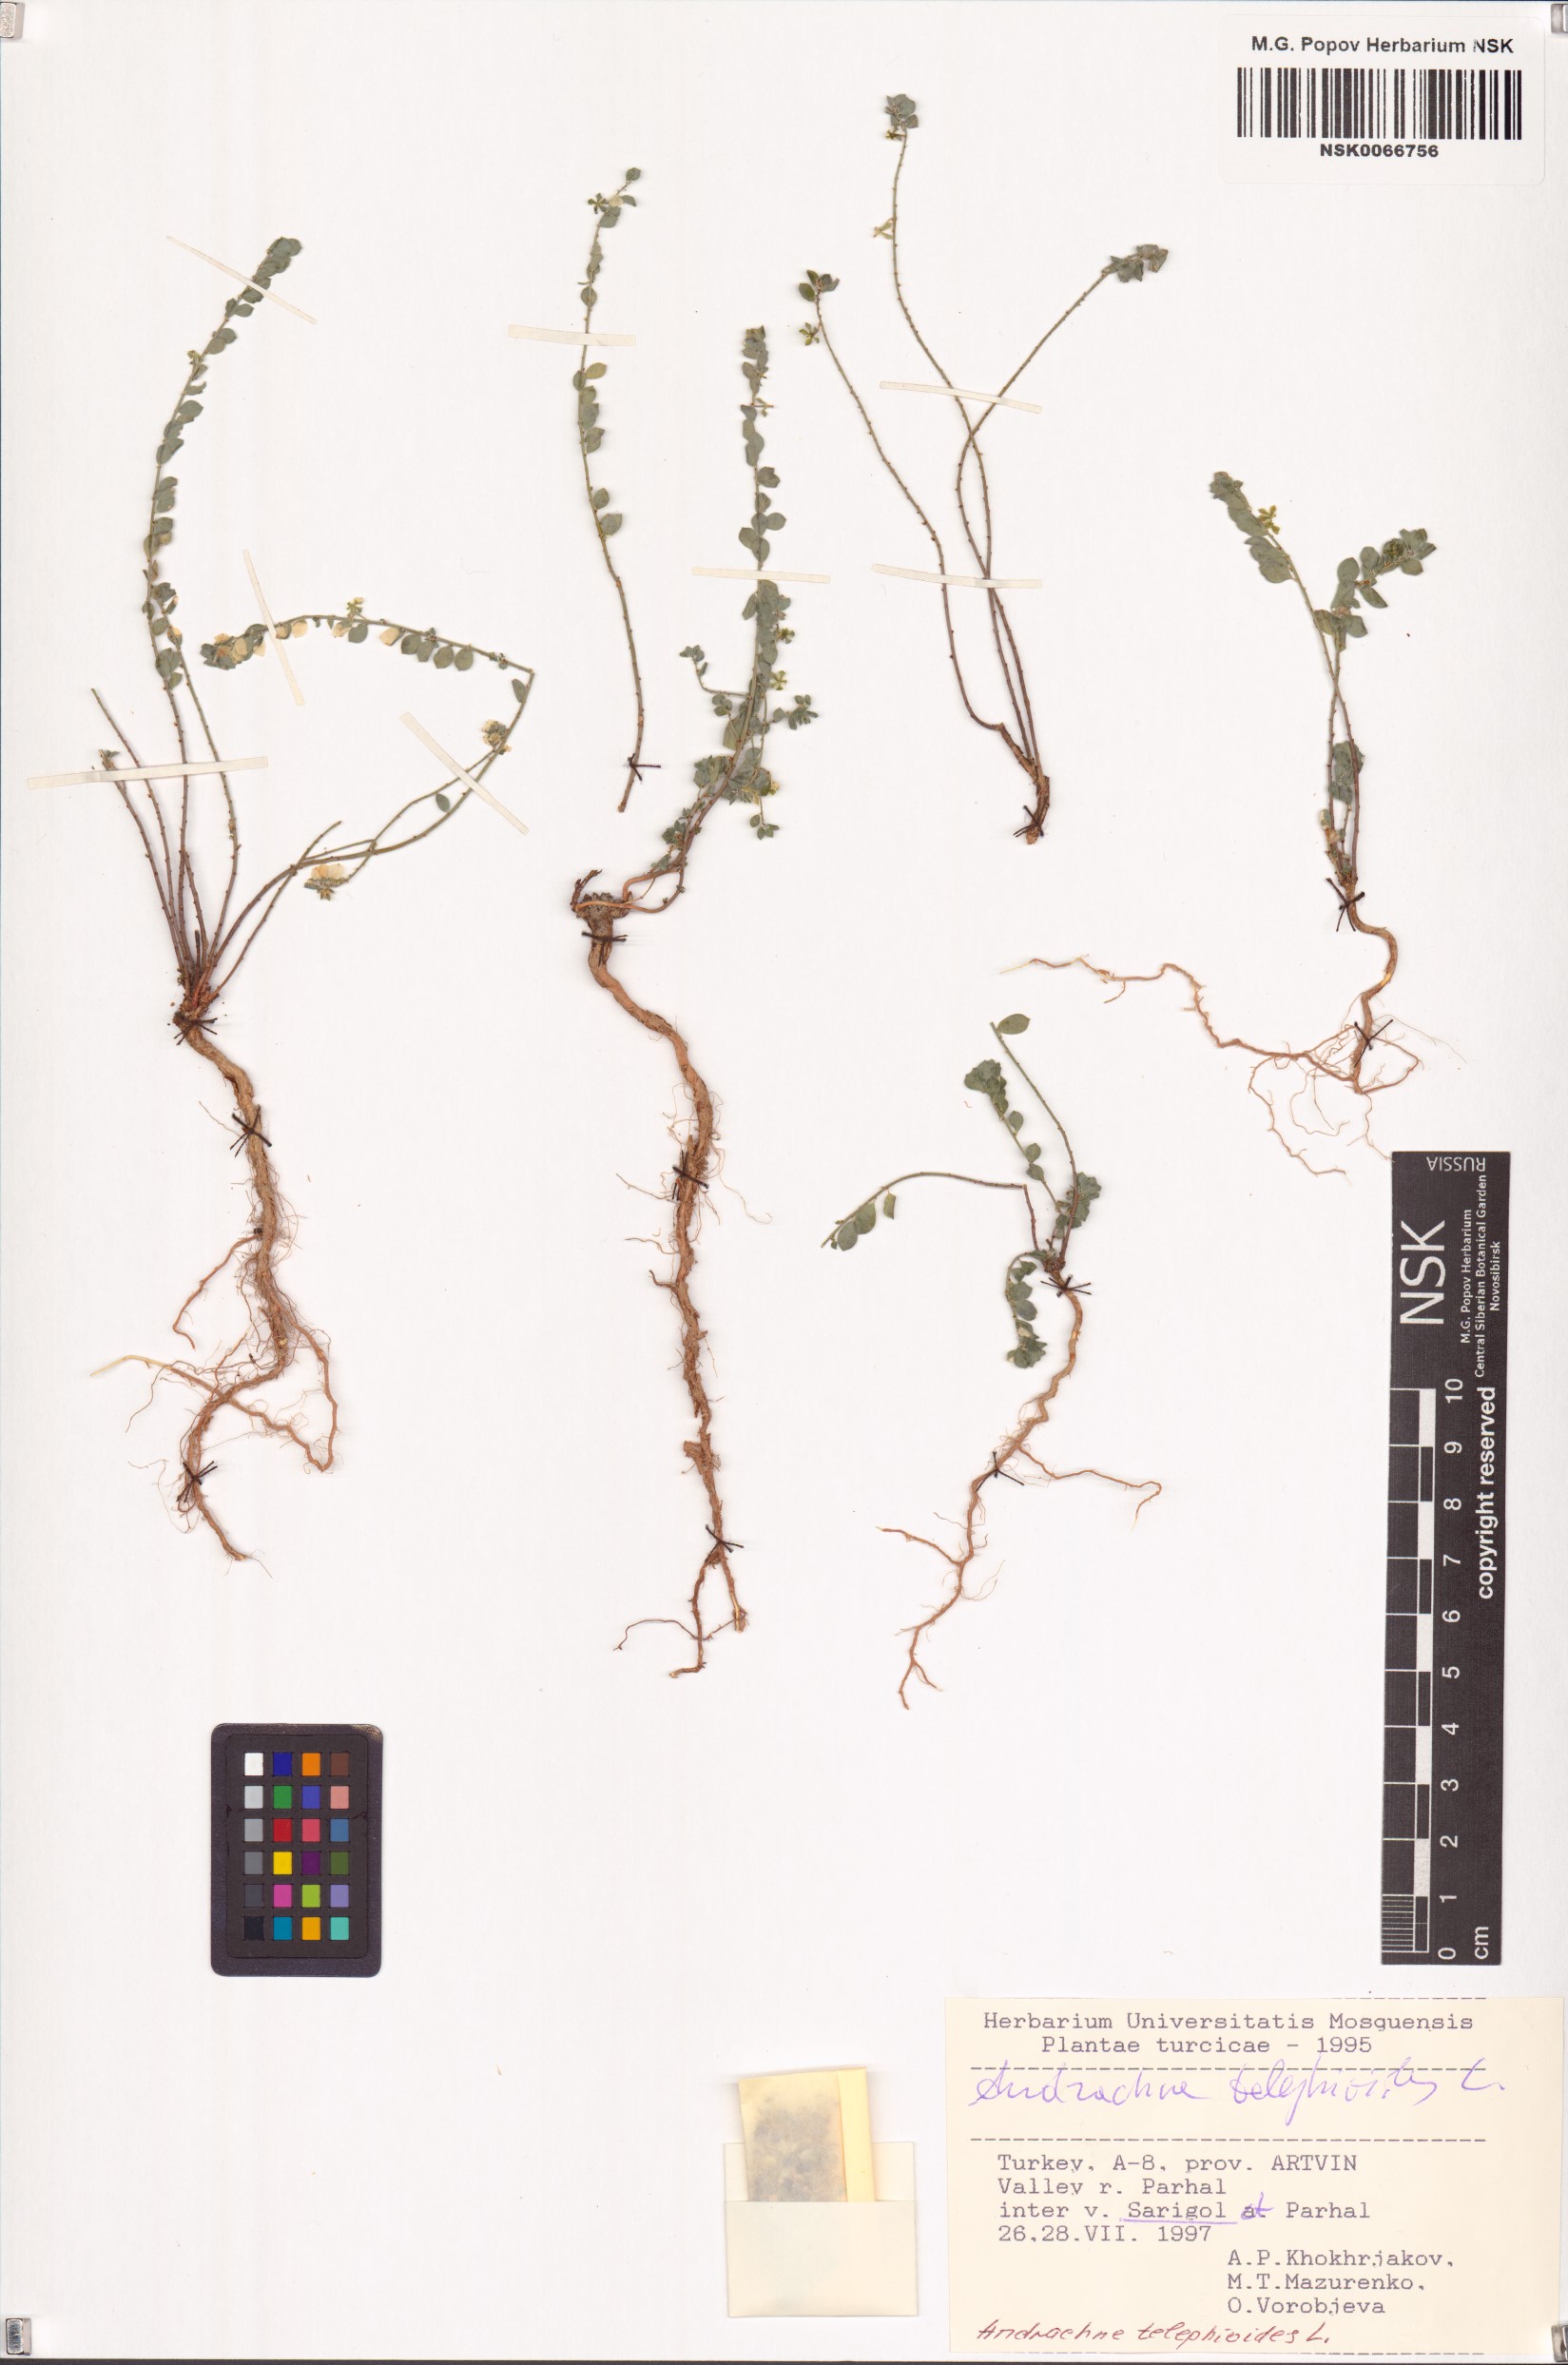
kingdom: Plantae
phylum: Tracheophyta
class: Magnoliopsida
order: Malpighiales
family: Phyllanthaceae
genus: Andrachne
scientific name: Andrachne telephioides
